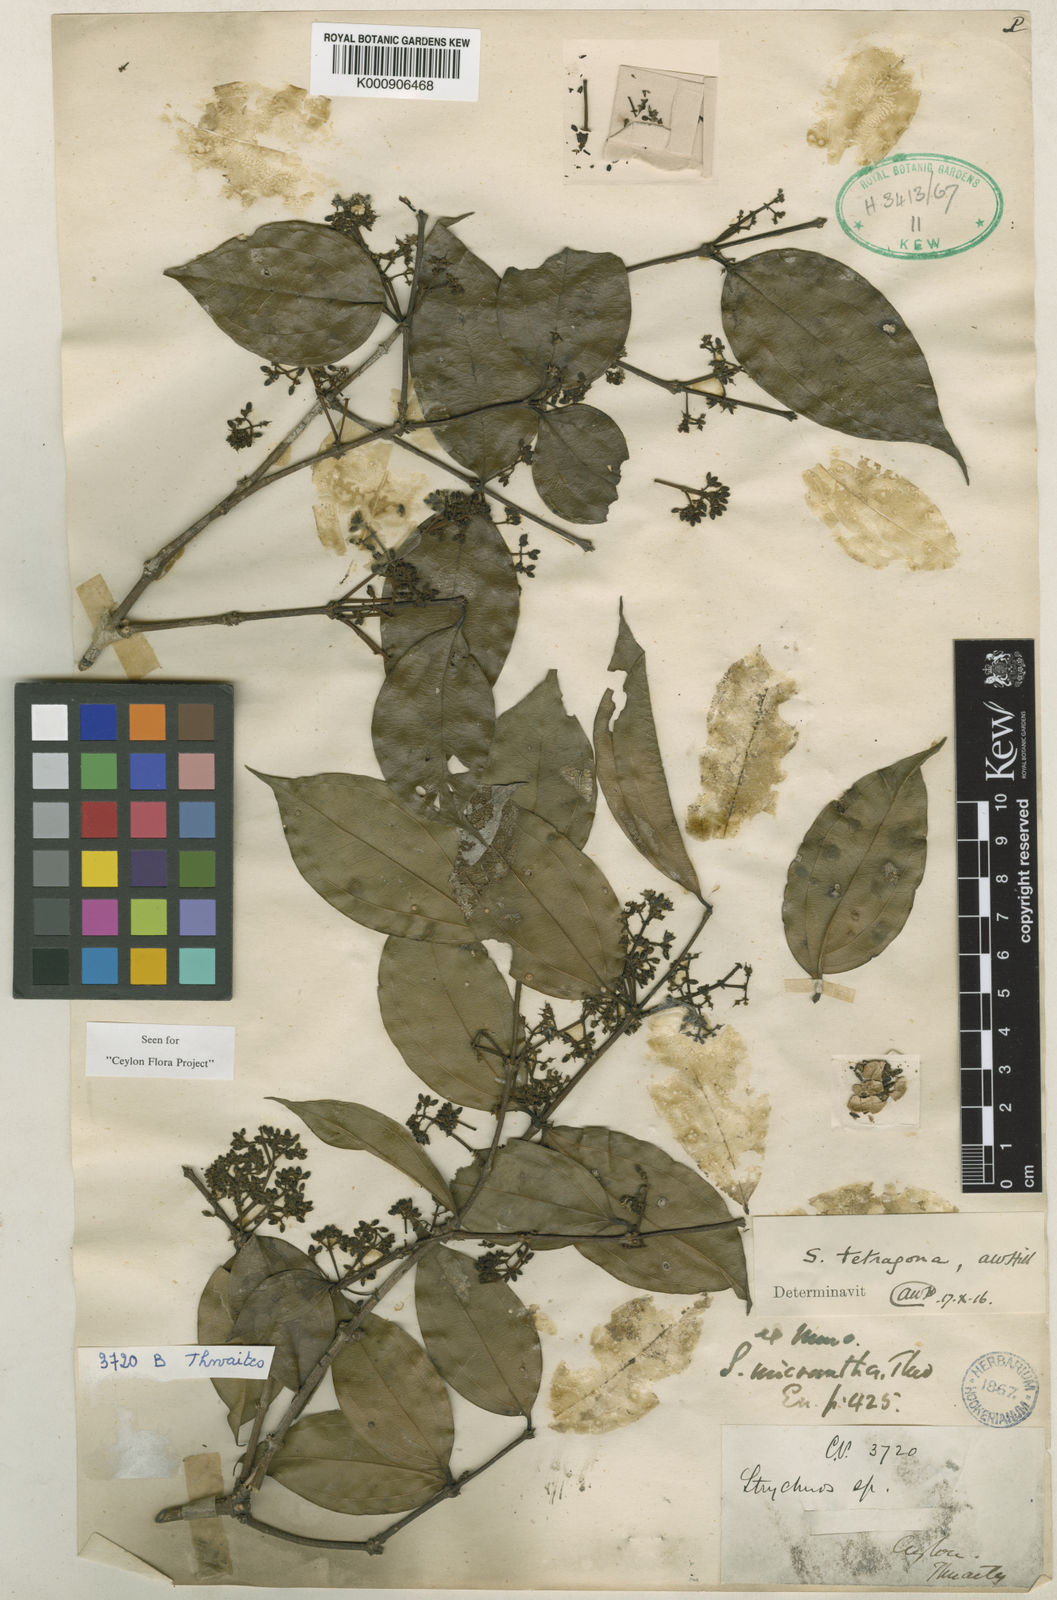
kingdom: Plantae
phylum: Tracheophyta
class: Magnoliopsida
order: Gentianales
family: Loganiaceae
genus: Strychnos
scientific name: Strychnos rupicola
